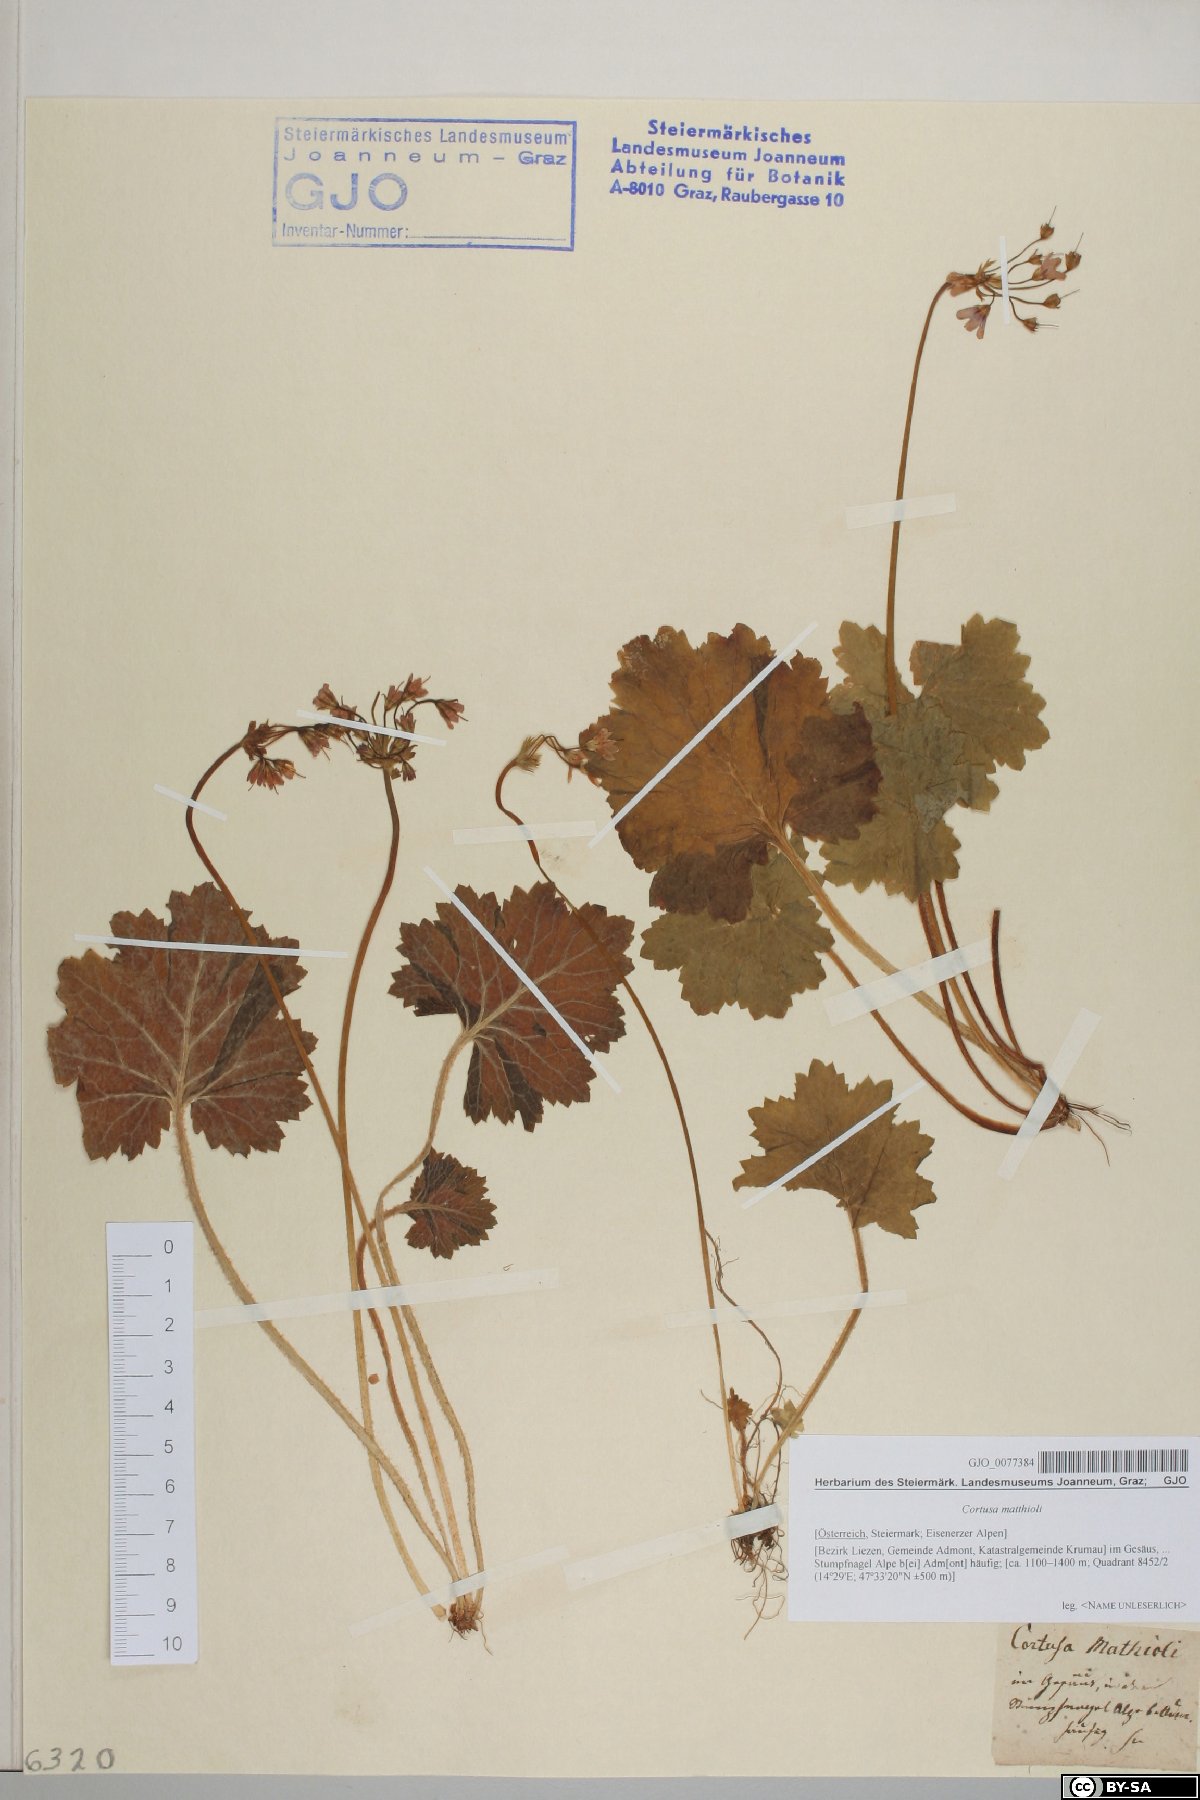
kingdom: Plantae
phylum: Tracheophyta
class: Magnoliopsida
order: Ericales
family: Primulaceae
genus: Primula
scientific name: Primula matthioli
